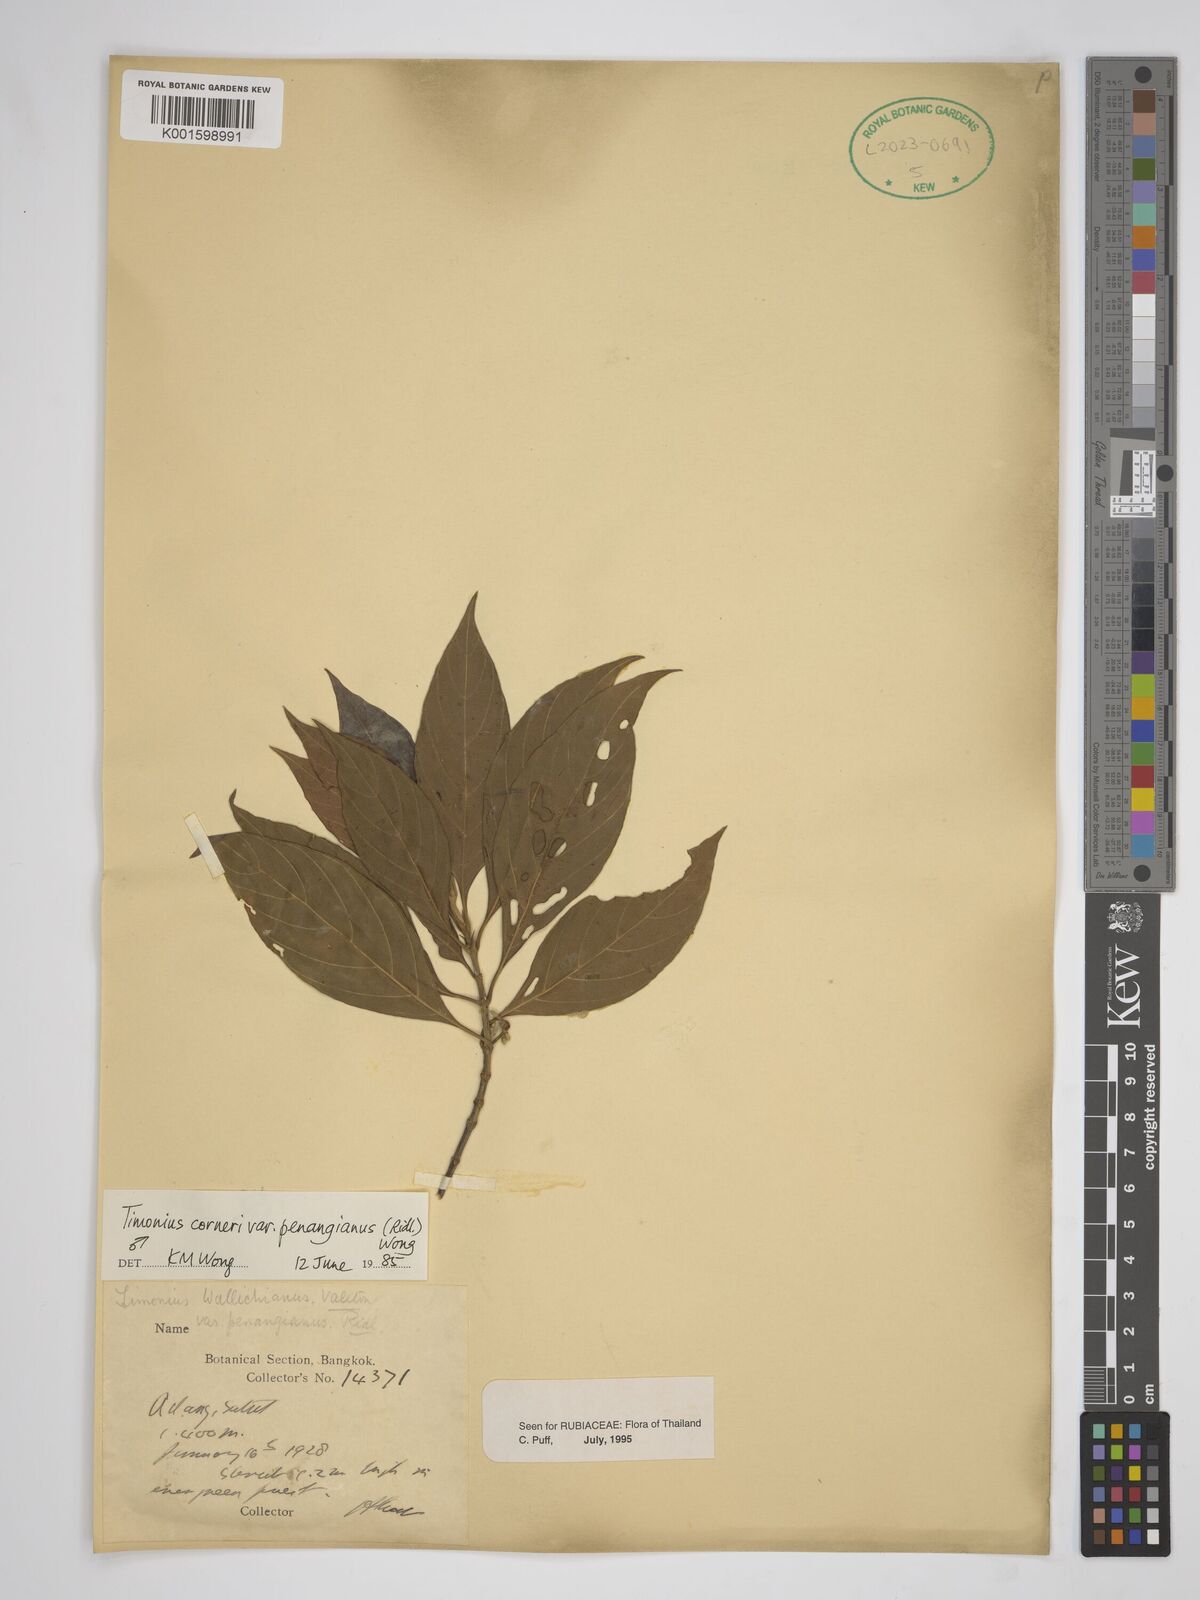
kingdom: Plantae
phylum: Tracheophyta
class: Magnoliopsida
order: Gentianales
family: Rubiaceae
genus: Timonius
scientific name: Timonius corneri
